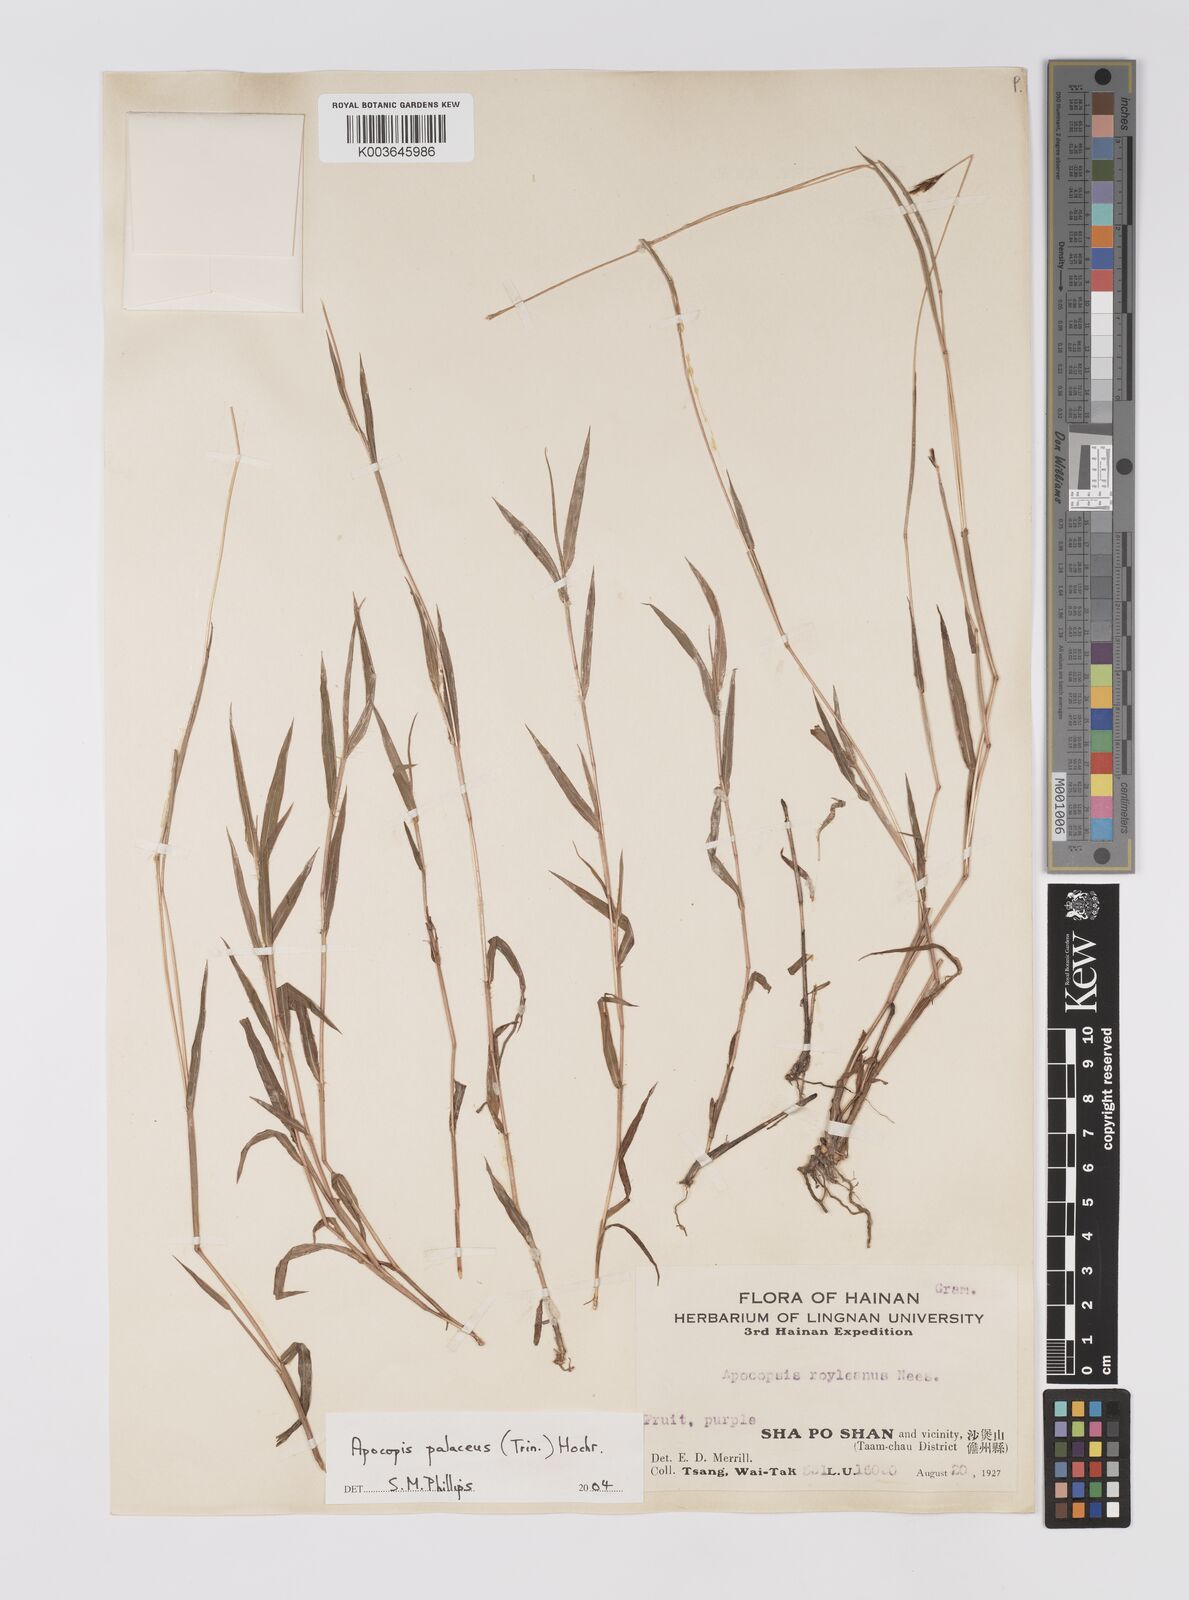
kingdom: Plantae
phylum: Tracheophyta
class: Liliopsida
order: Poales
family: Poaceae
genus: Apocopis
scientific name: Apocopis paleaceus
